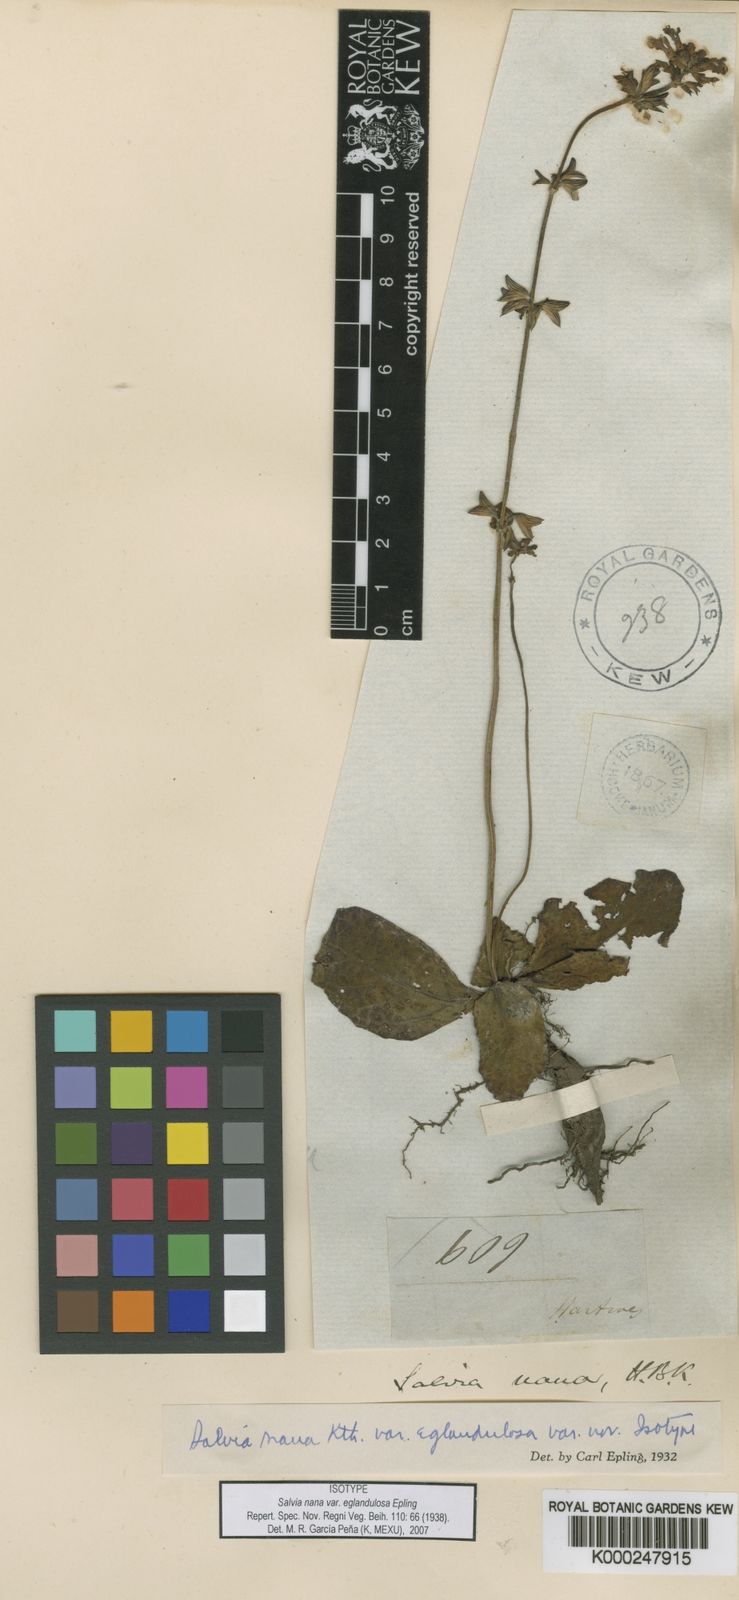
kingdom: Plantae
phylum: Tracheophyta
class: Magnoliopsida
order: Lamiales
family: Lamiaceae
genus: Salvia
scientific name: Salvia
